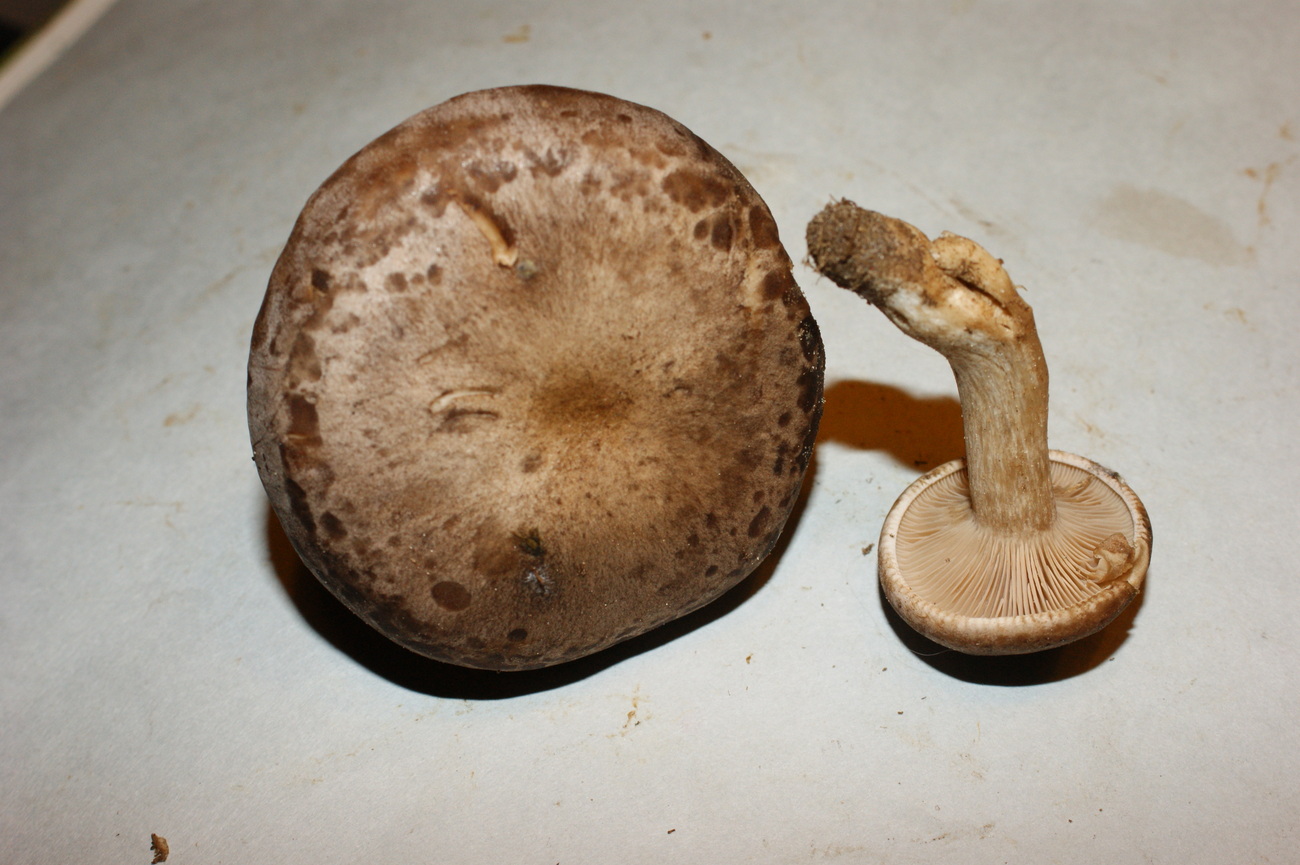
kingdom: Fungi
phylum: Basidiomycota
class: Agaricomycetes
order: Agaricales
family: Tricholomataceae
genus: Lepista
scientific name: Lepista panaeolus
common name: marmoreret hekseringshat
